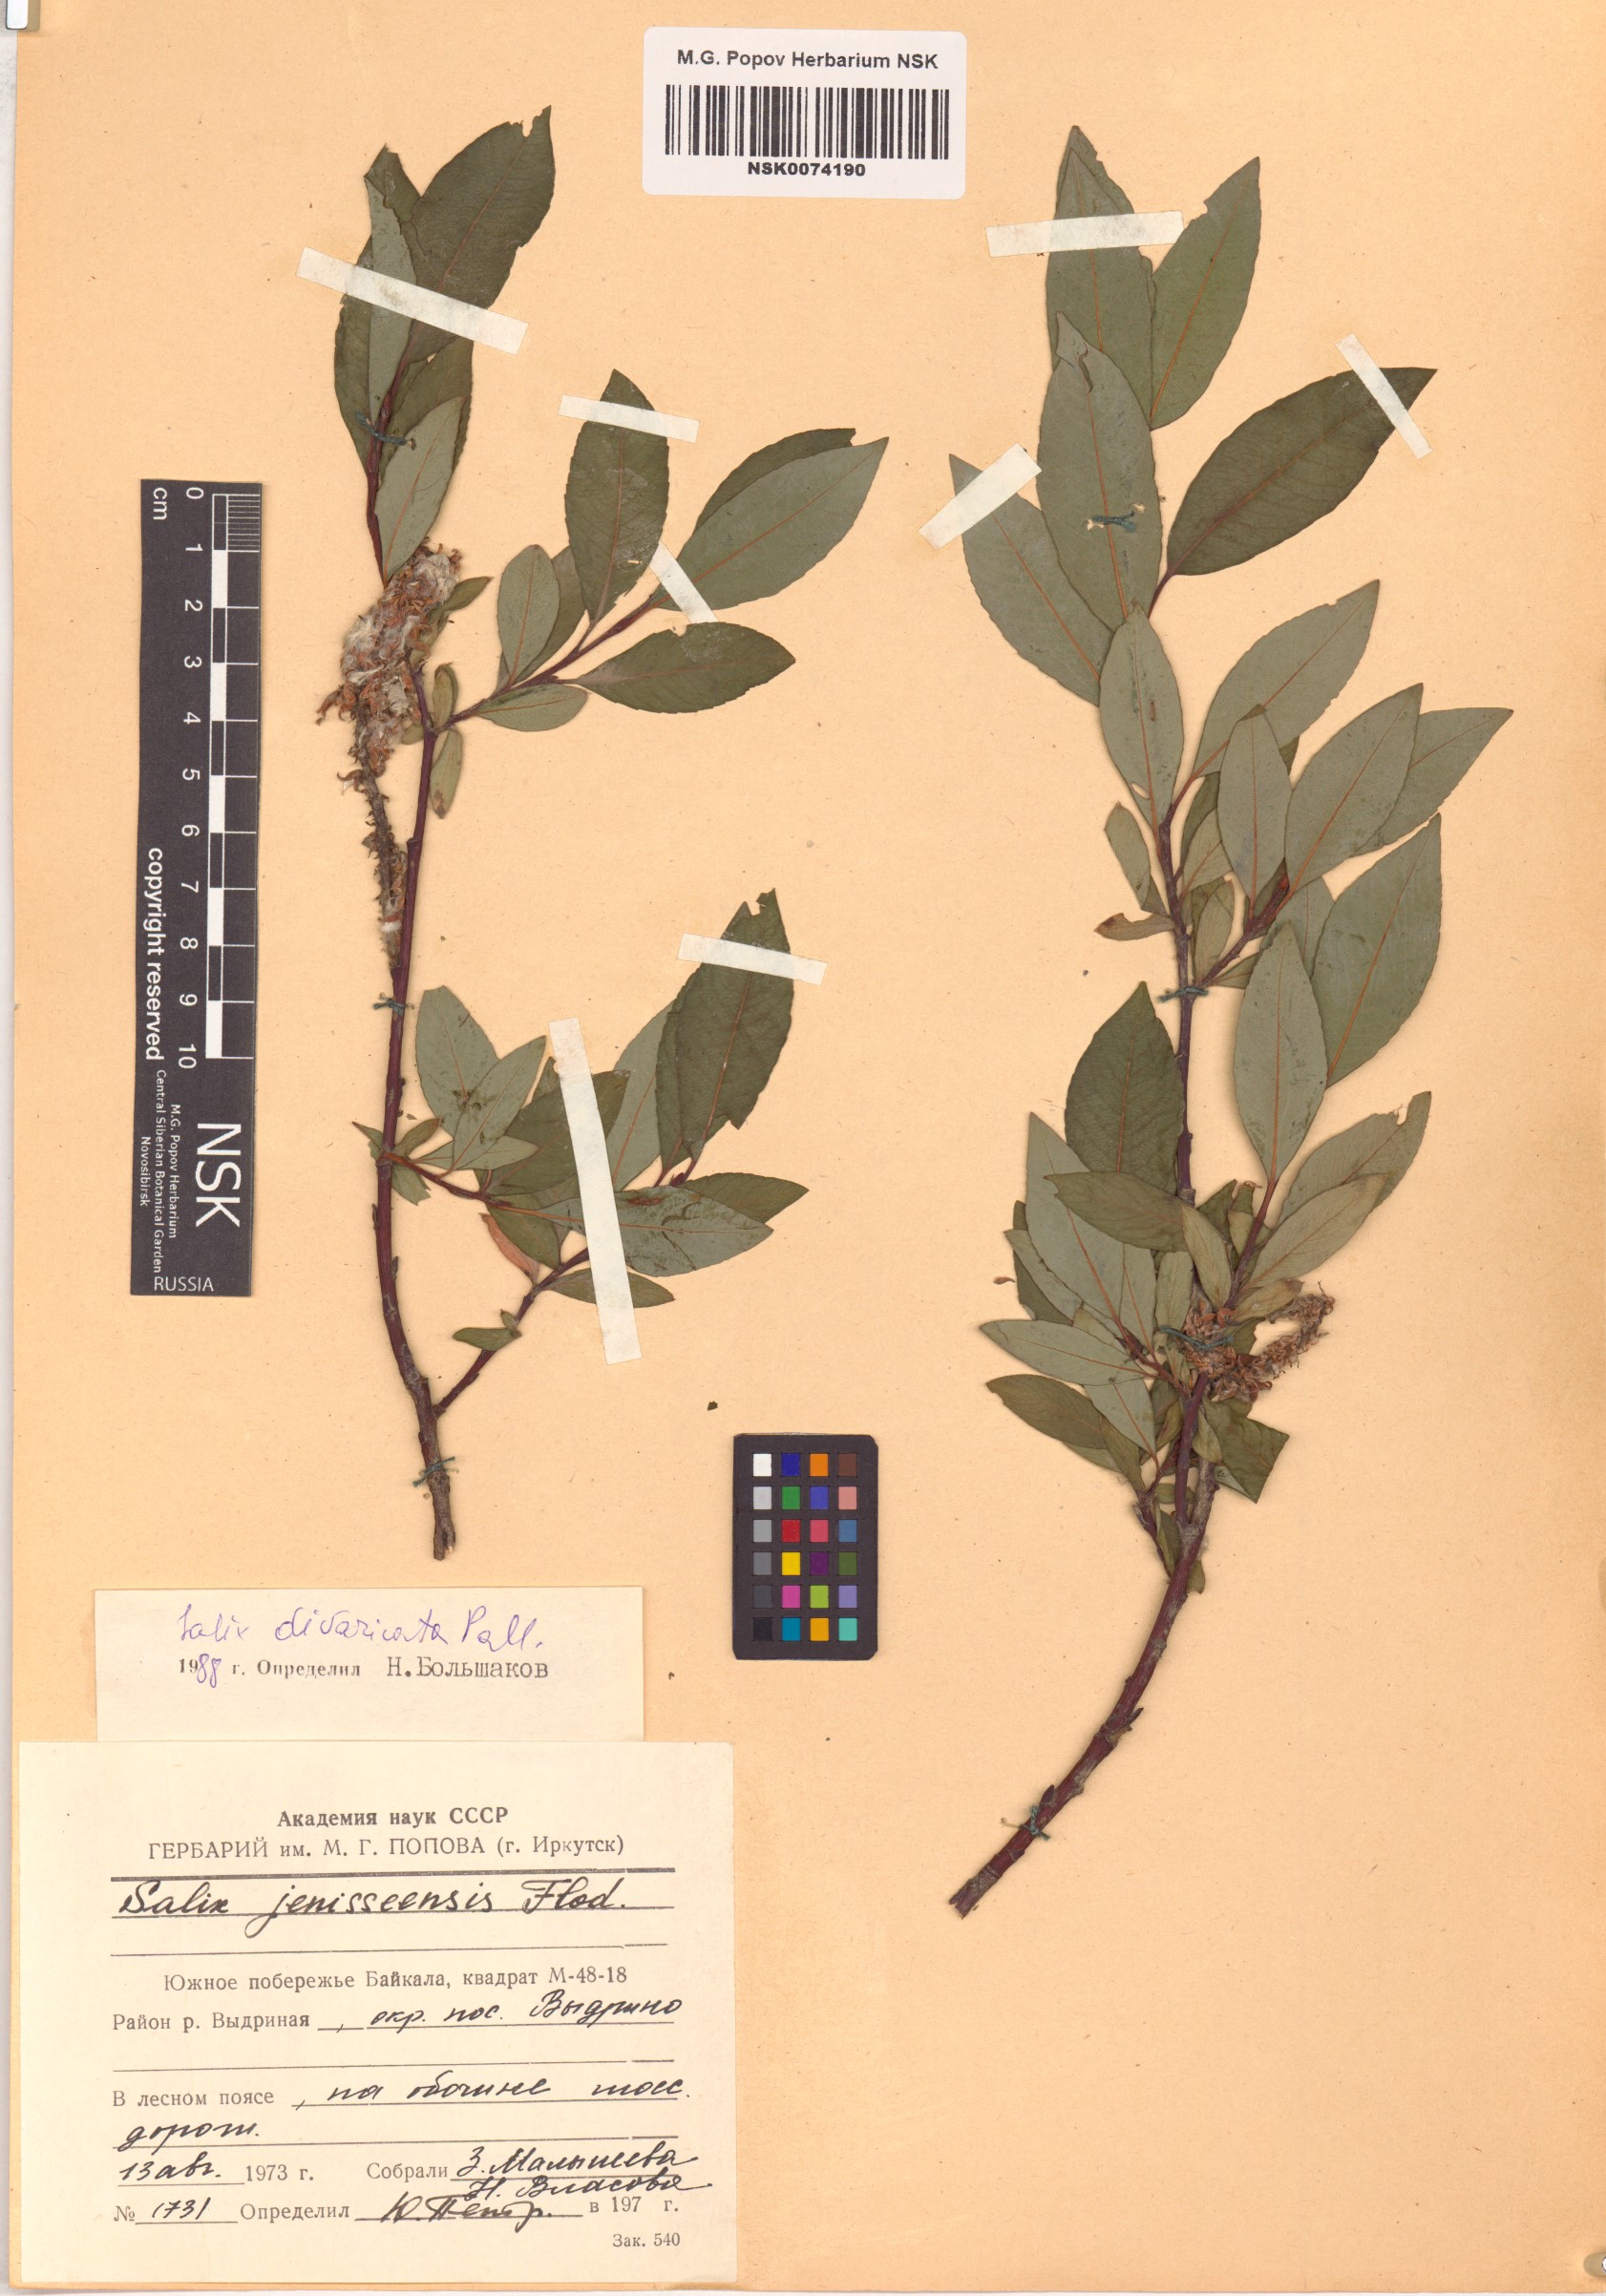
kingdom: Plantae
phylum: Tracheophyta
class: Magnoliopsida
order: Malpighiales
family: Salicaceae
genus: Salix
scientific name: Salix divaricata
